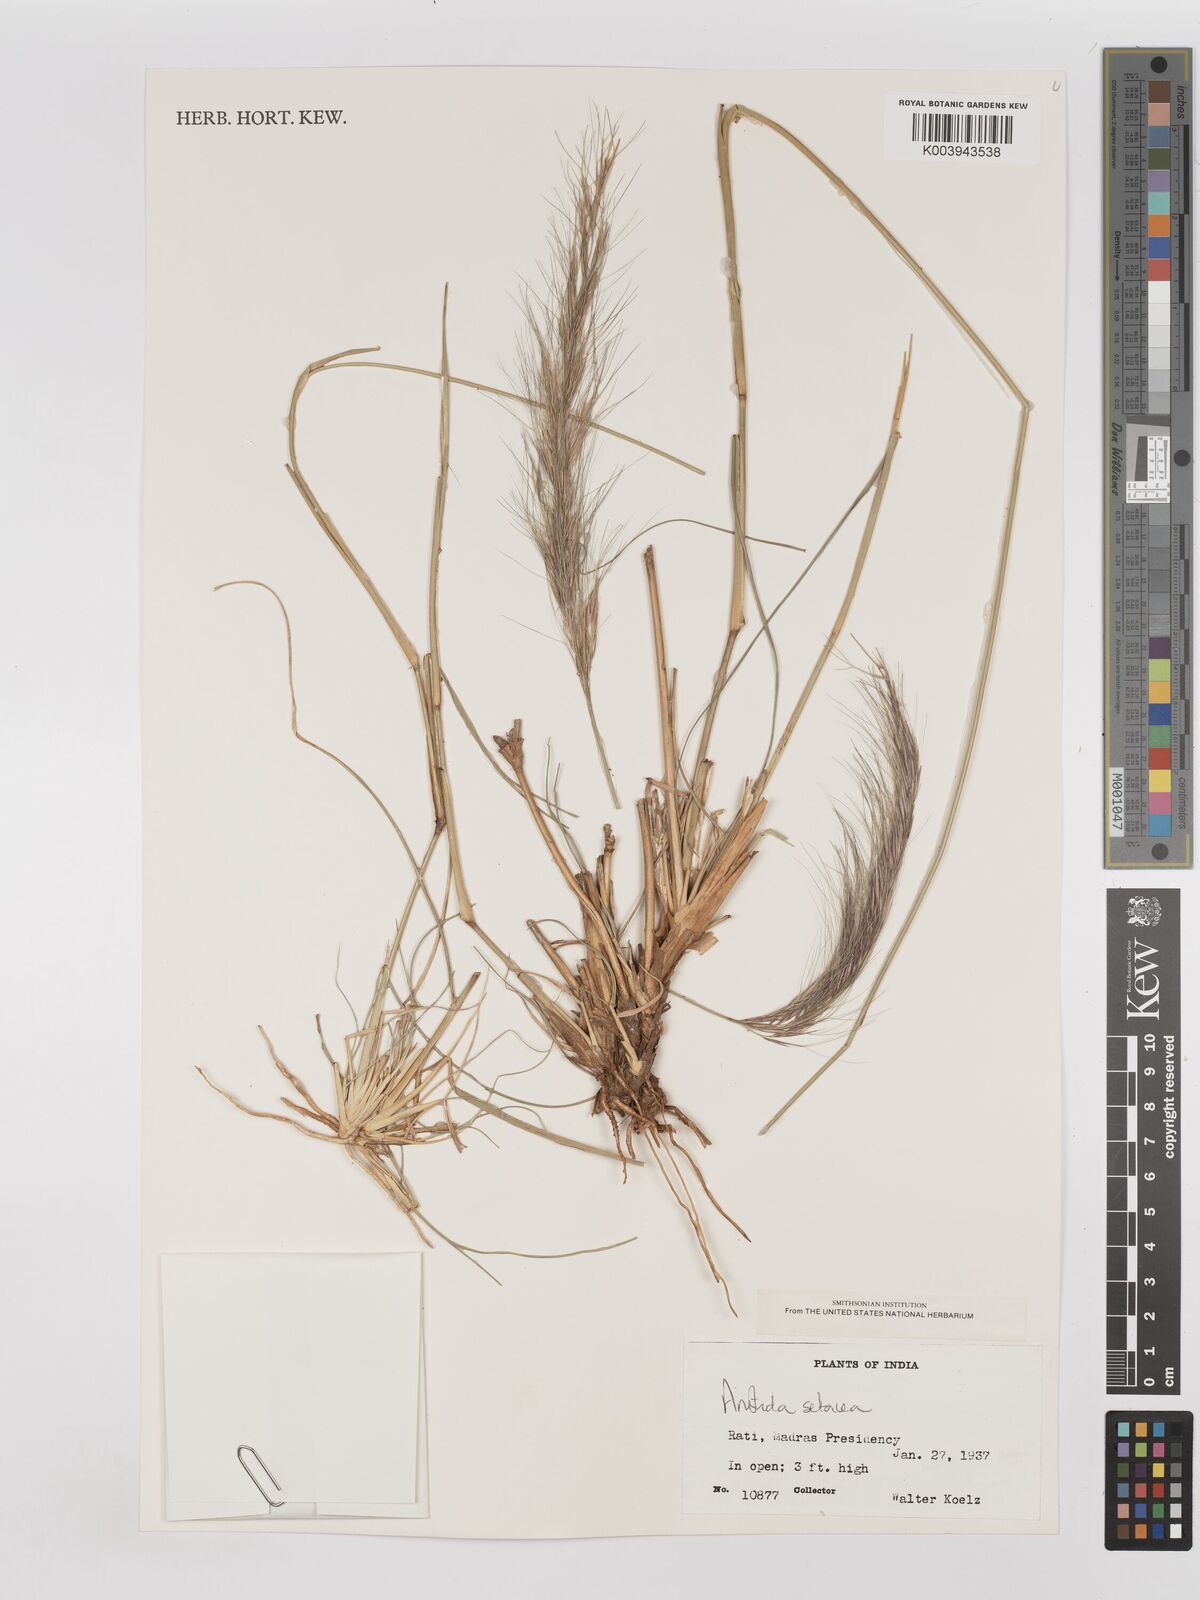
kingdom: Plantae
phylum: Tracheophyta
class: Liliopsida
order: Poales
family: Poaceae
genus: Aristida
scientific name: Aristida setacea
